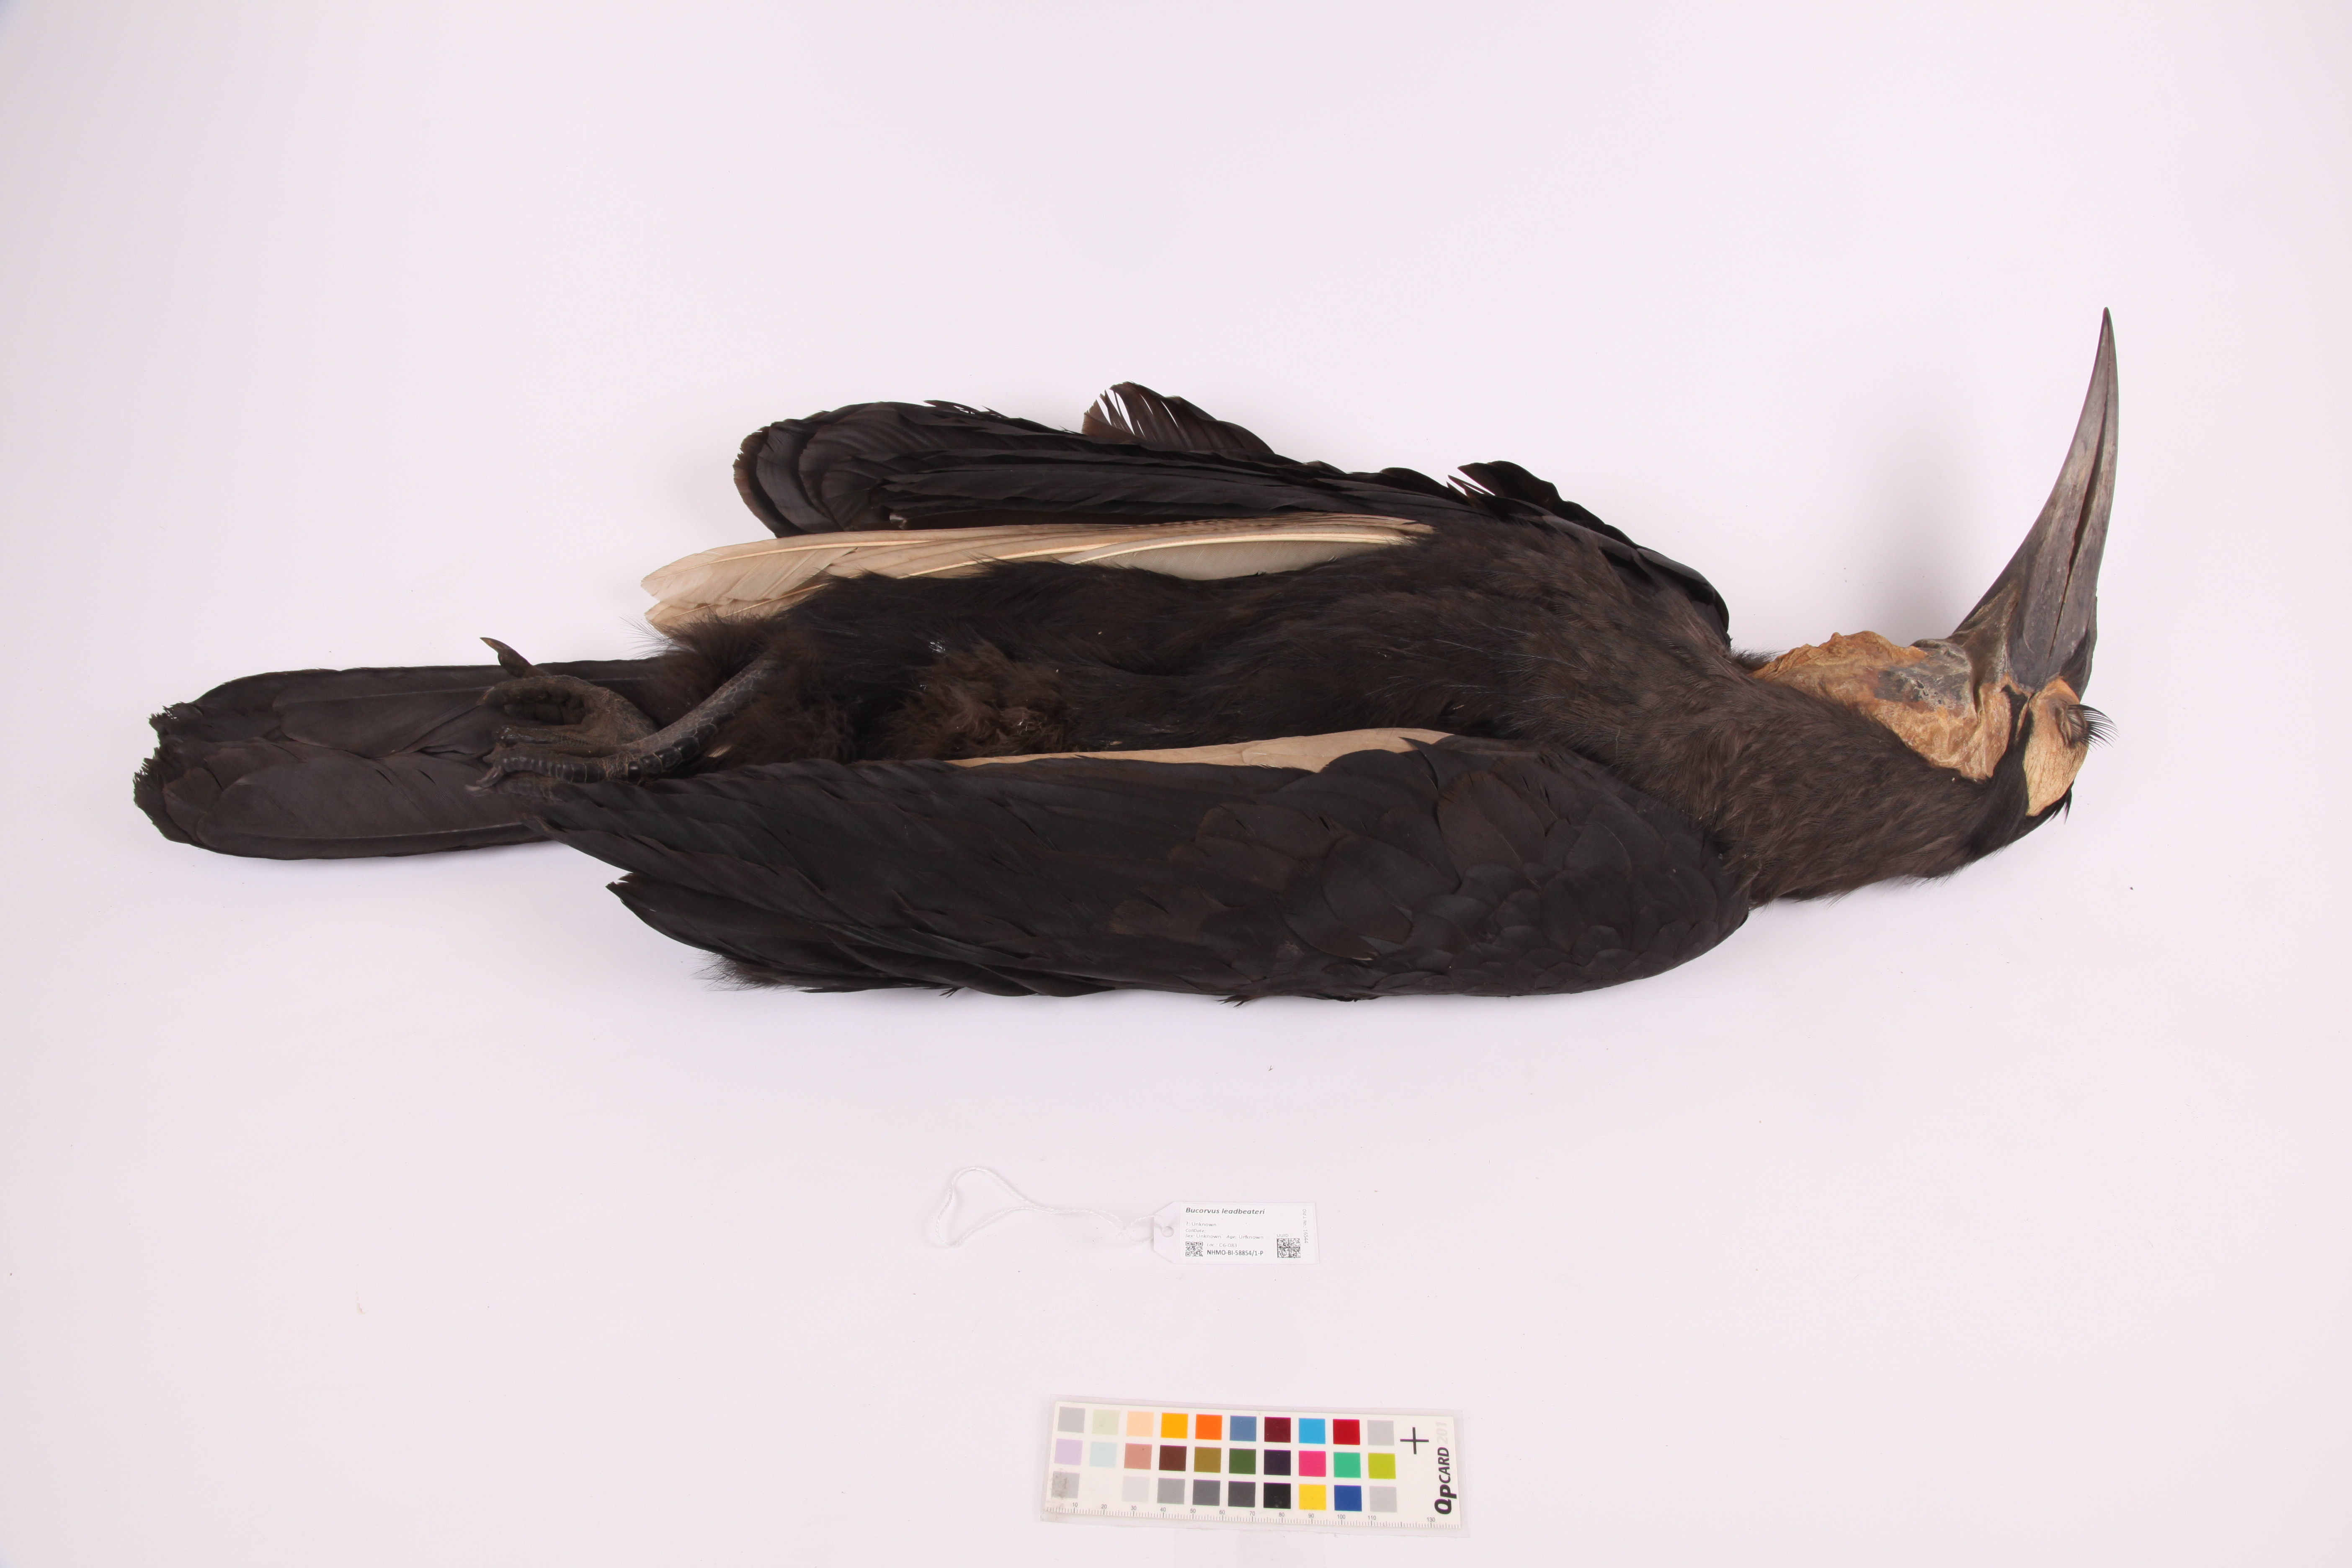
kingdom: Animalia
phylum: Chordata
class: Aves
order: Bucerotiformes
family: Bucorvidae
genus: Bucorvus
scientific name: Bucorvus leadbeateri
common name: Southern ground-hornbill
